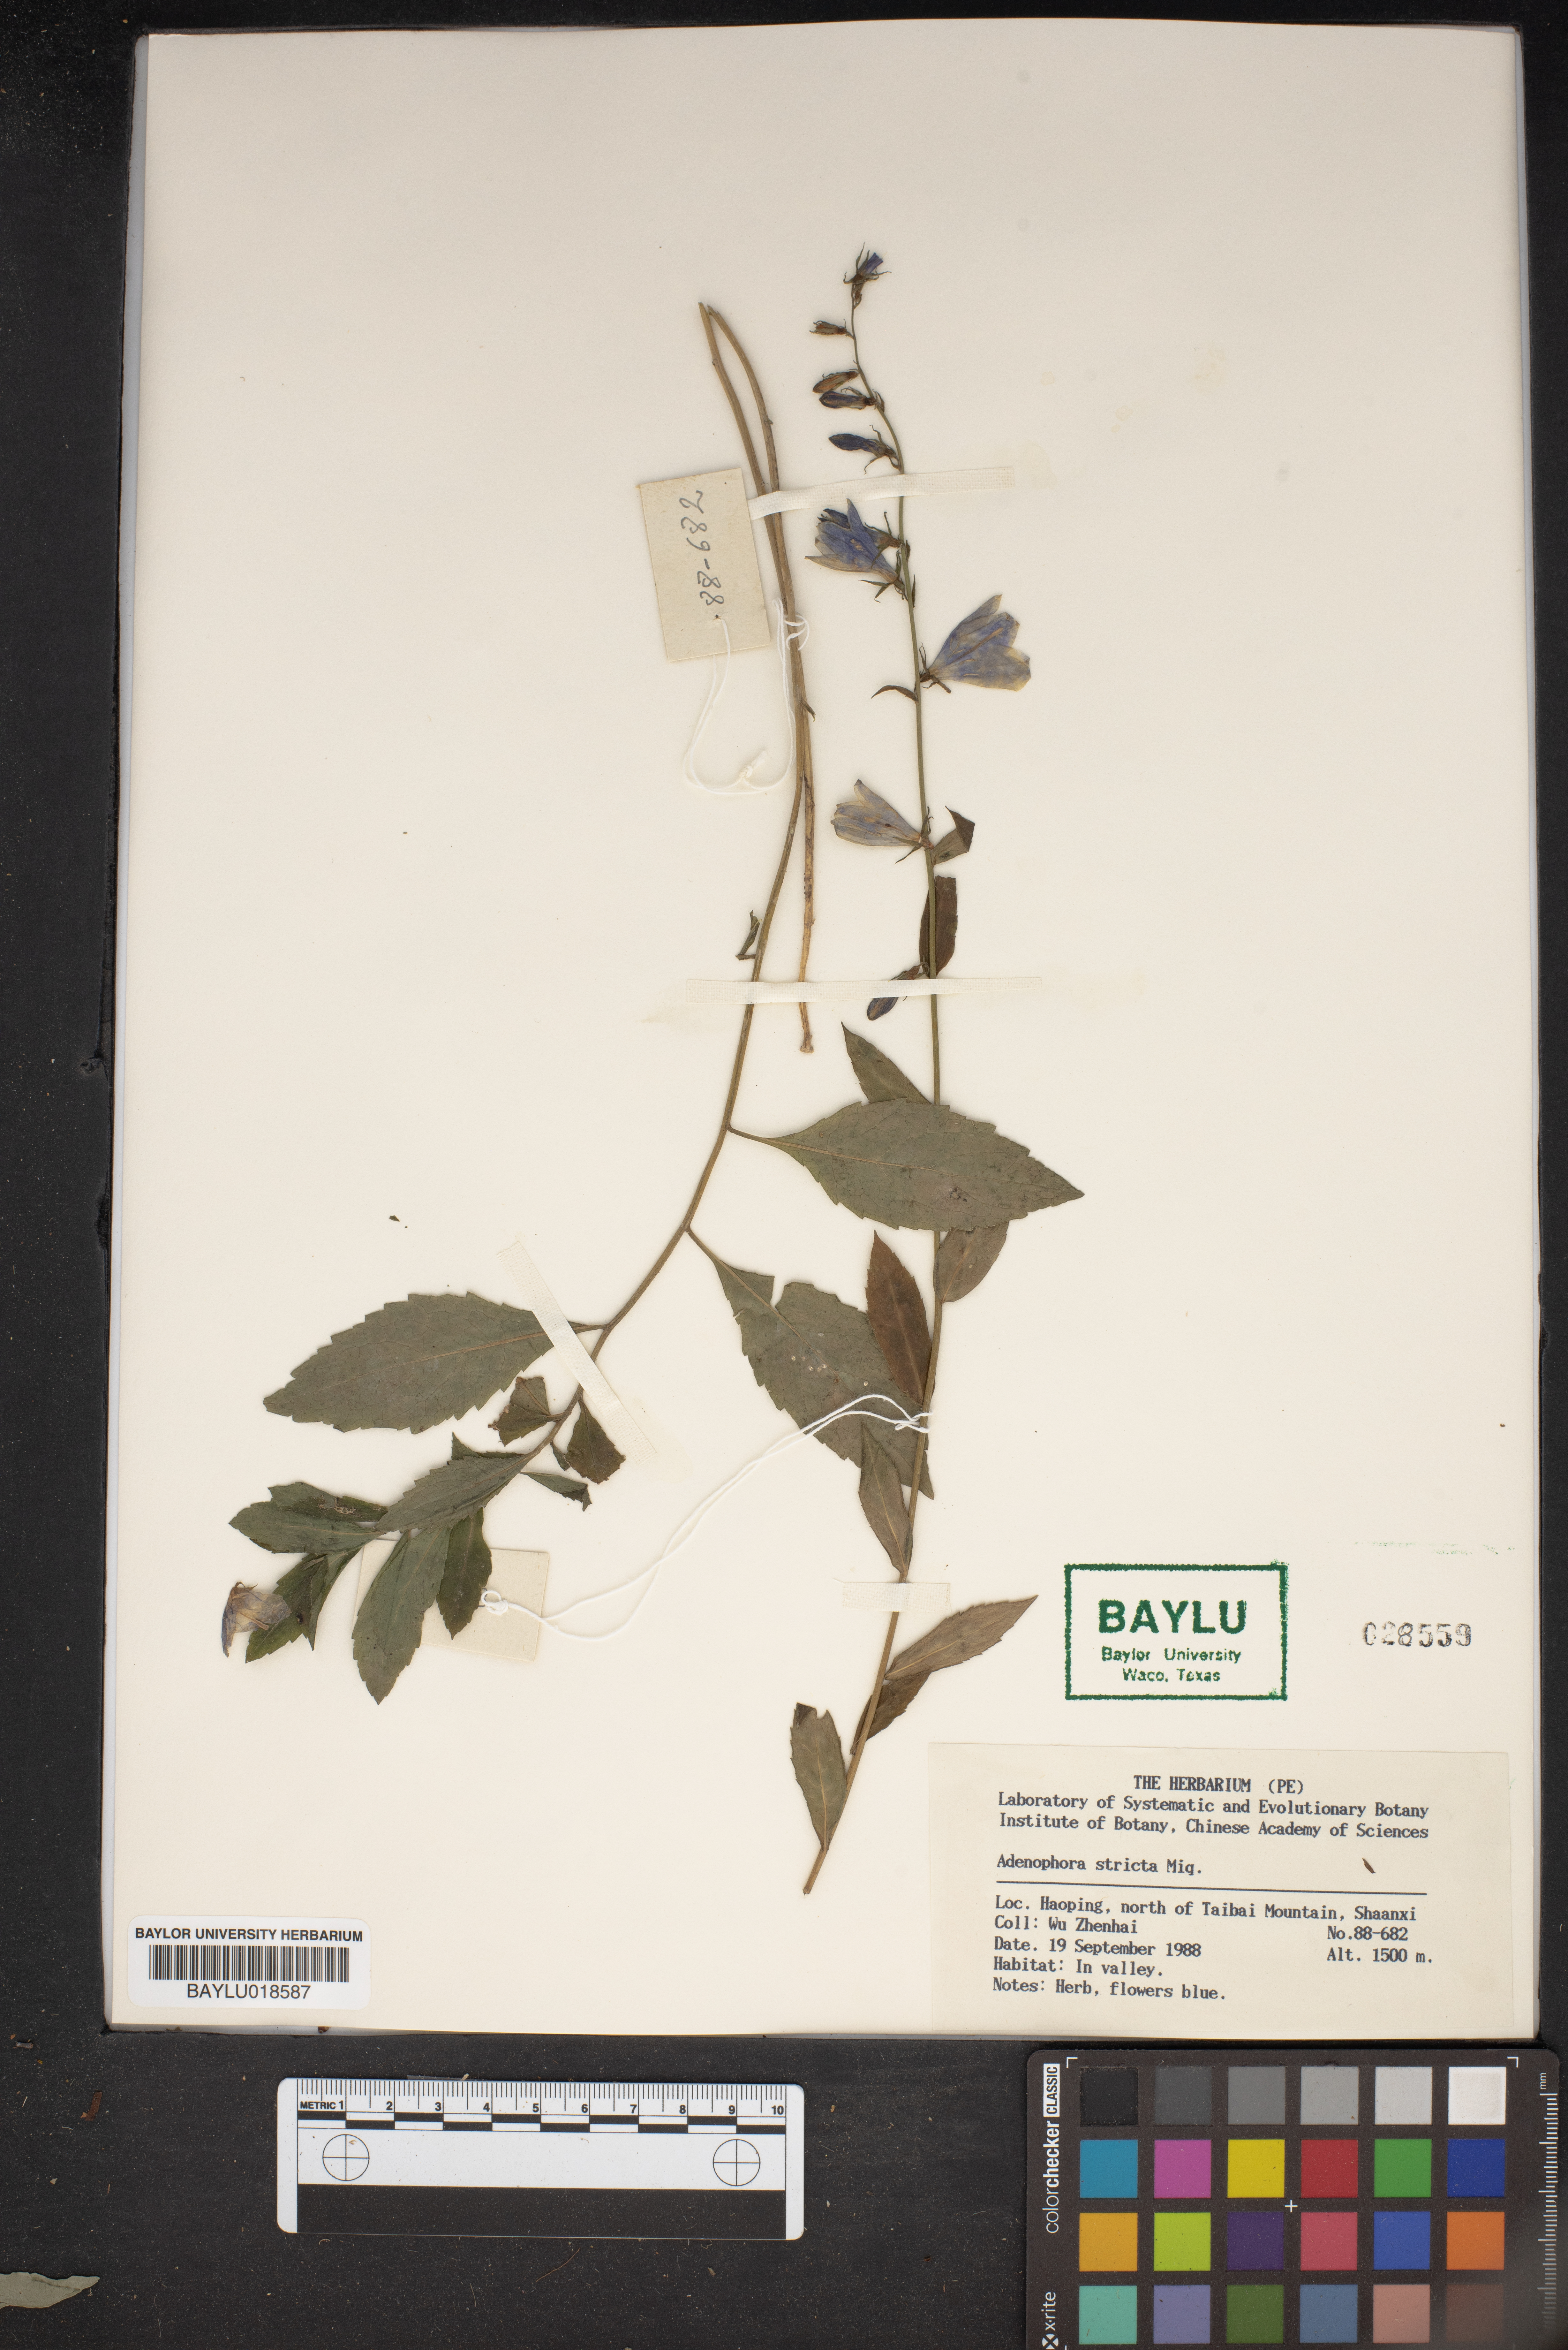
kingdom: Plantae
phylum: Tracheophyta
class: Magnoliopsida
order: Asterales
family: Campanulaceae
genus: Adenophora
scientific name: Adenophora stricta
